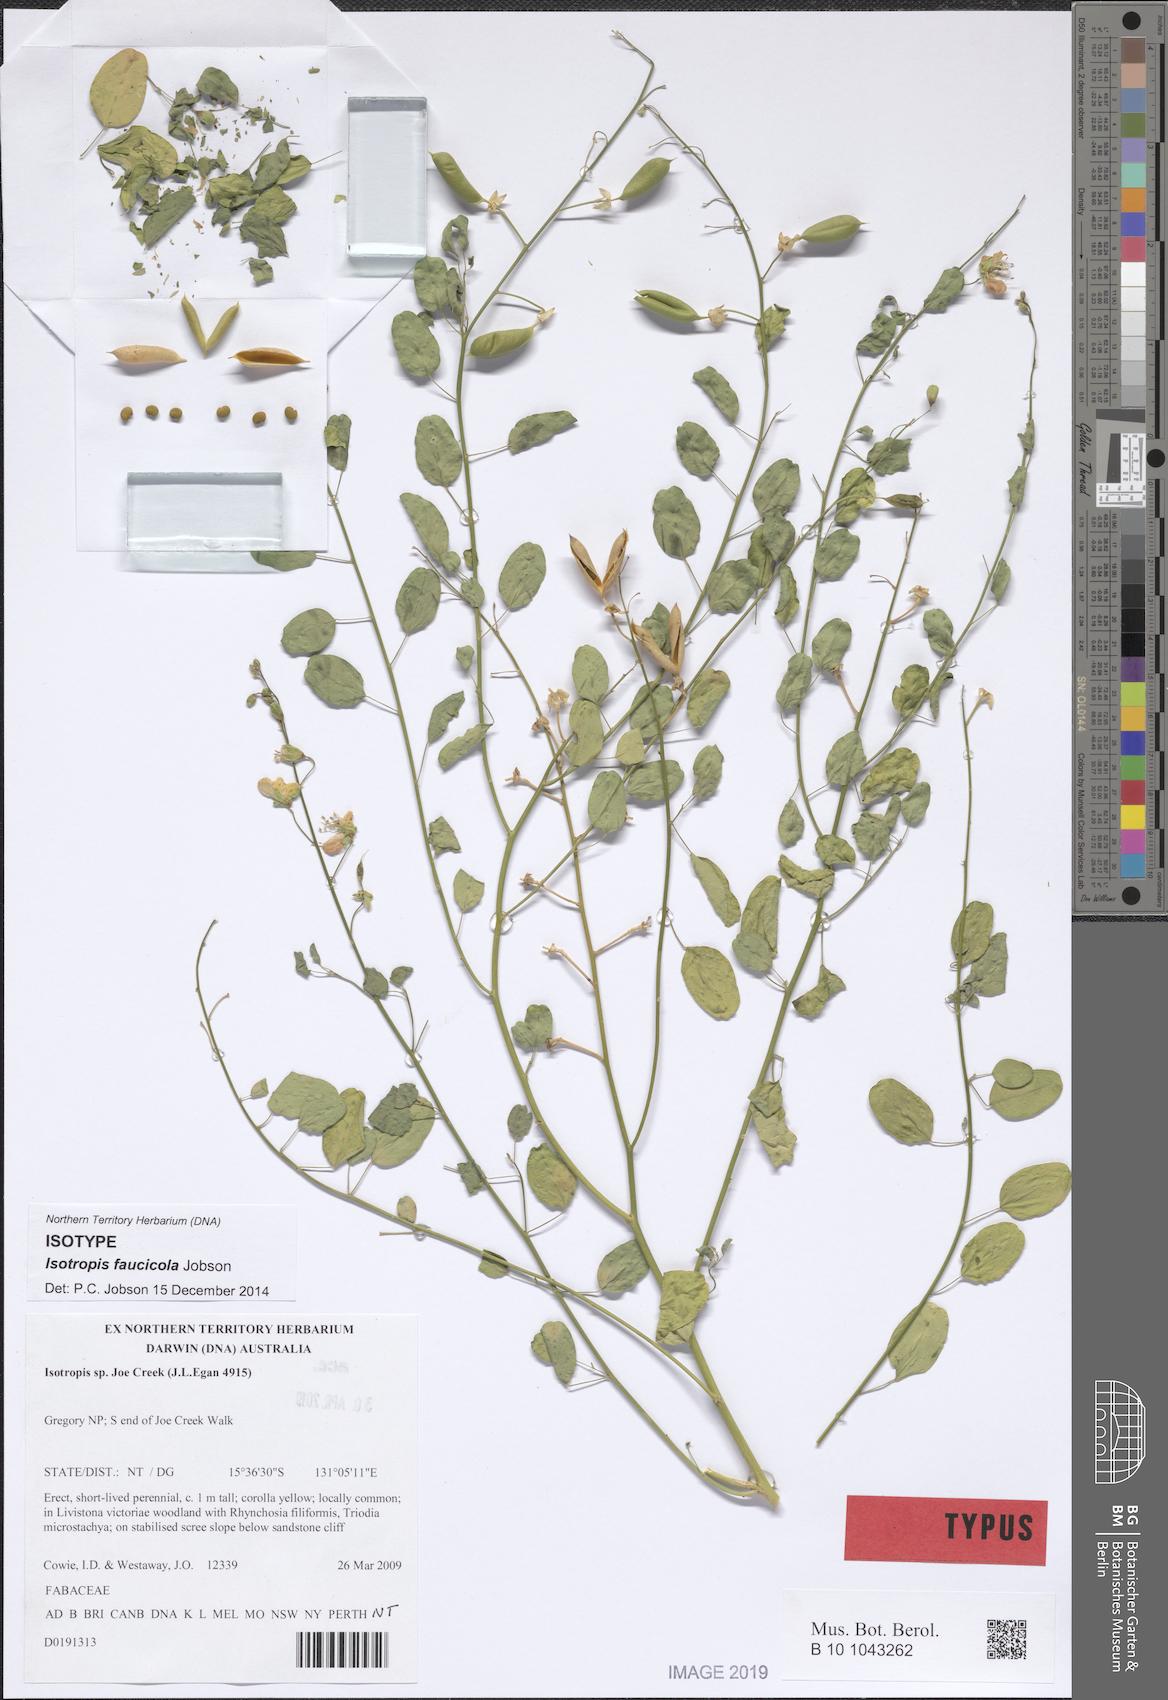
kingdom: Plantae
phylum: Tracheophyta
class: Magnoliopsida
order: Fabales
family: Fabaceae
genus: Isotropis
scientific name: Isotropis faucicola
